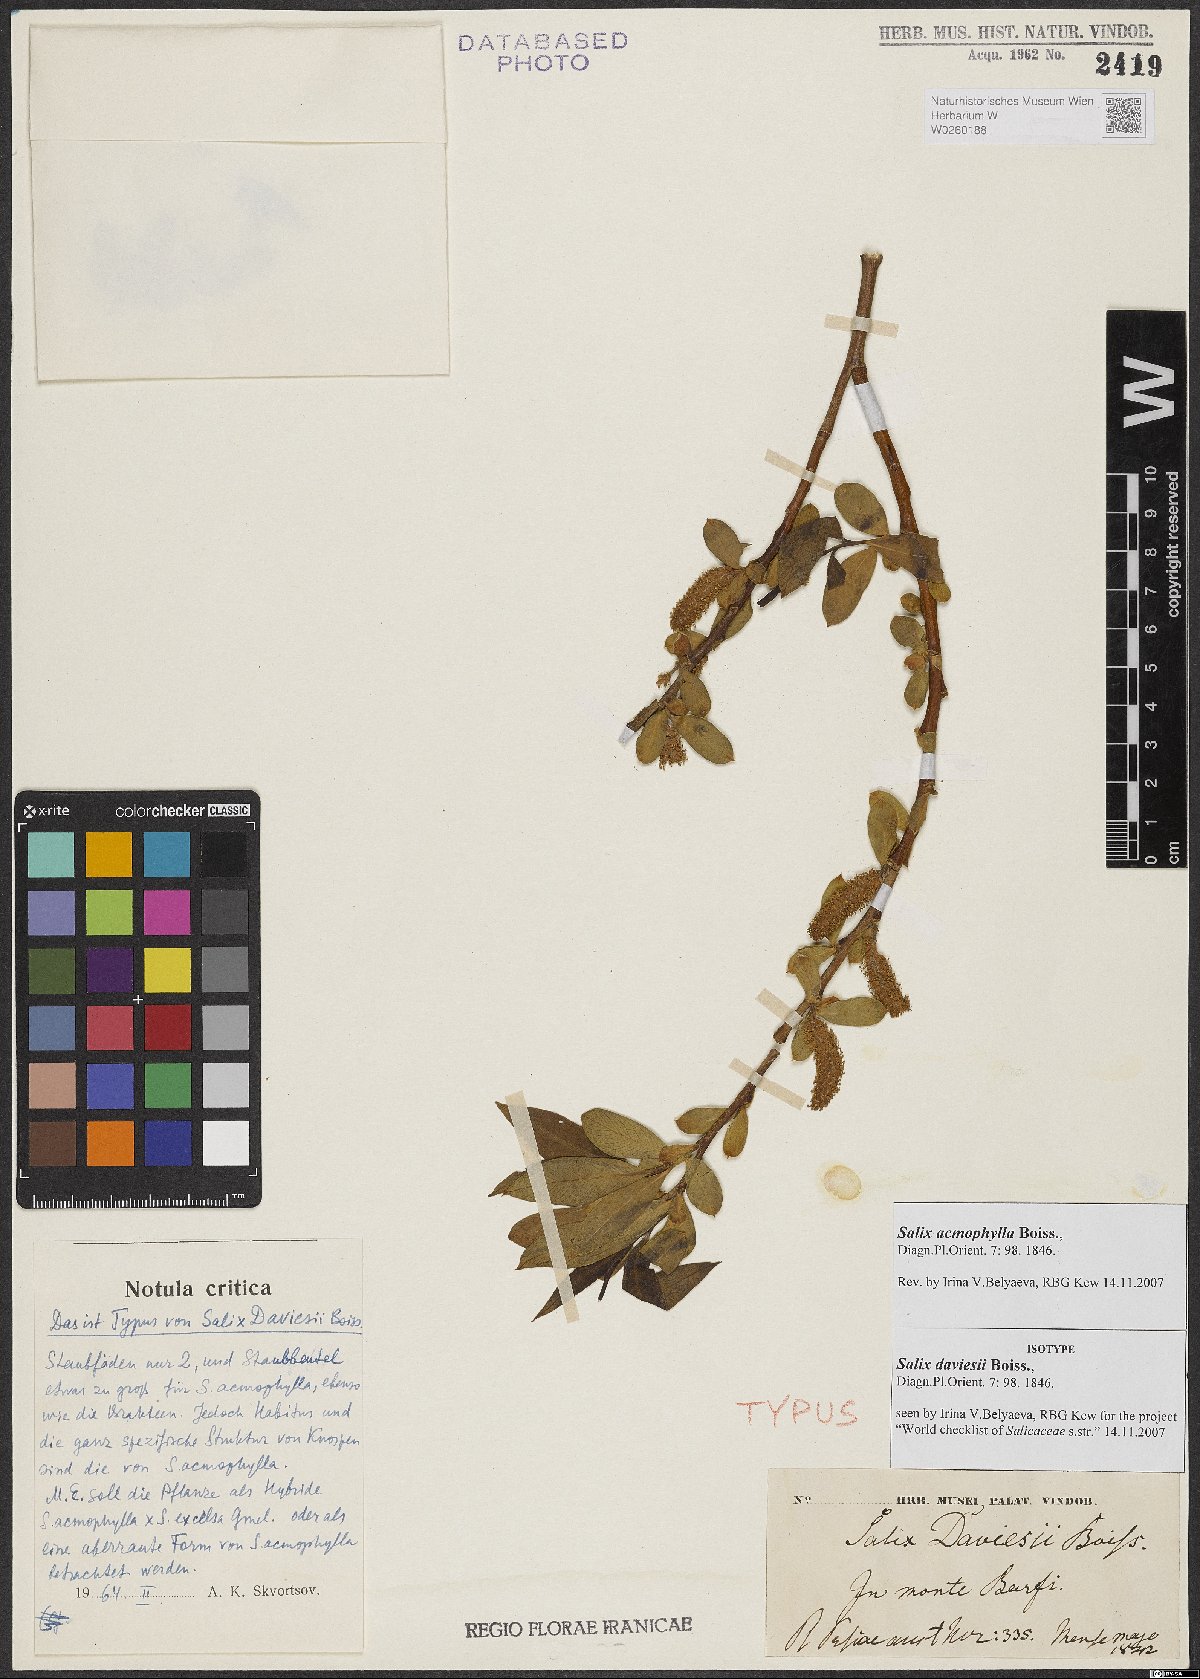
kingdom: Plantae
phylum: Tracheophyta
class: Magnoliopsida
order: Malpighiales
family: Salicaceae
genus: Salix
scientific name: Salix acmophylla
